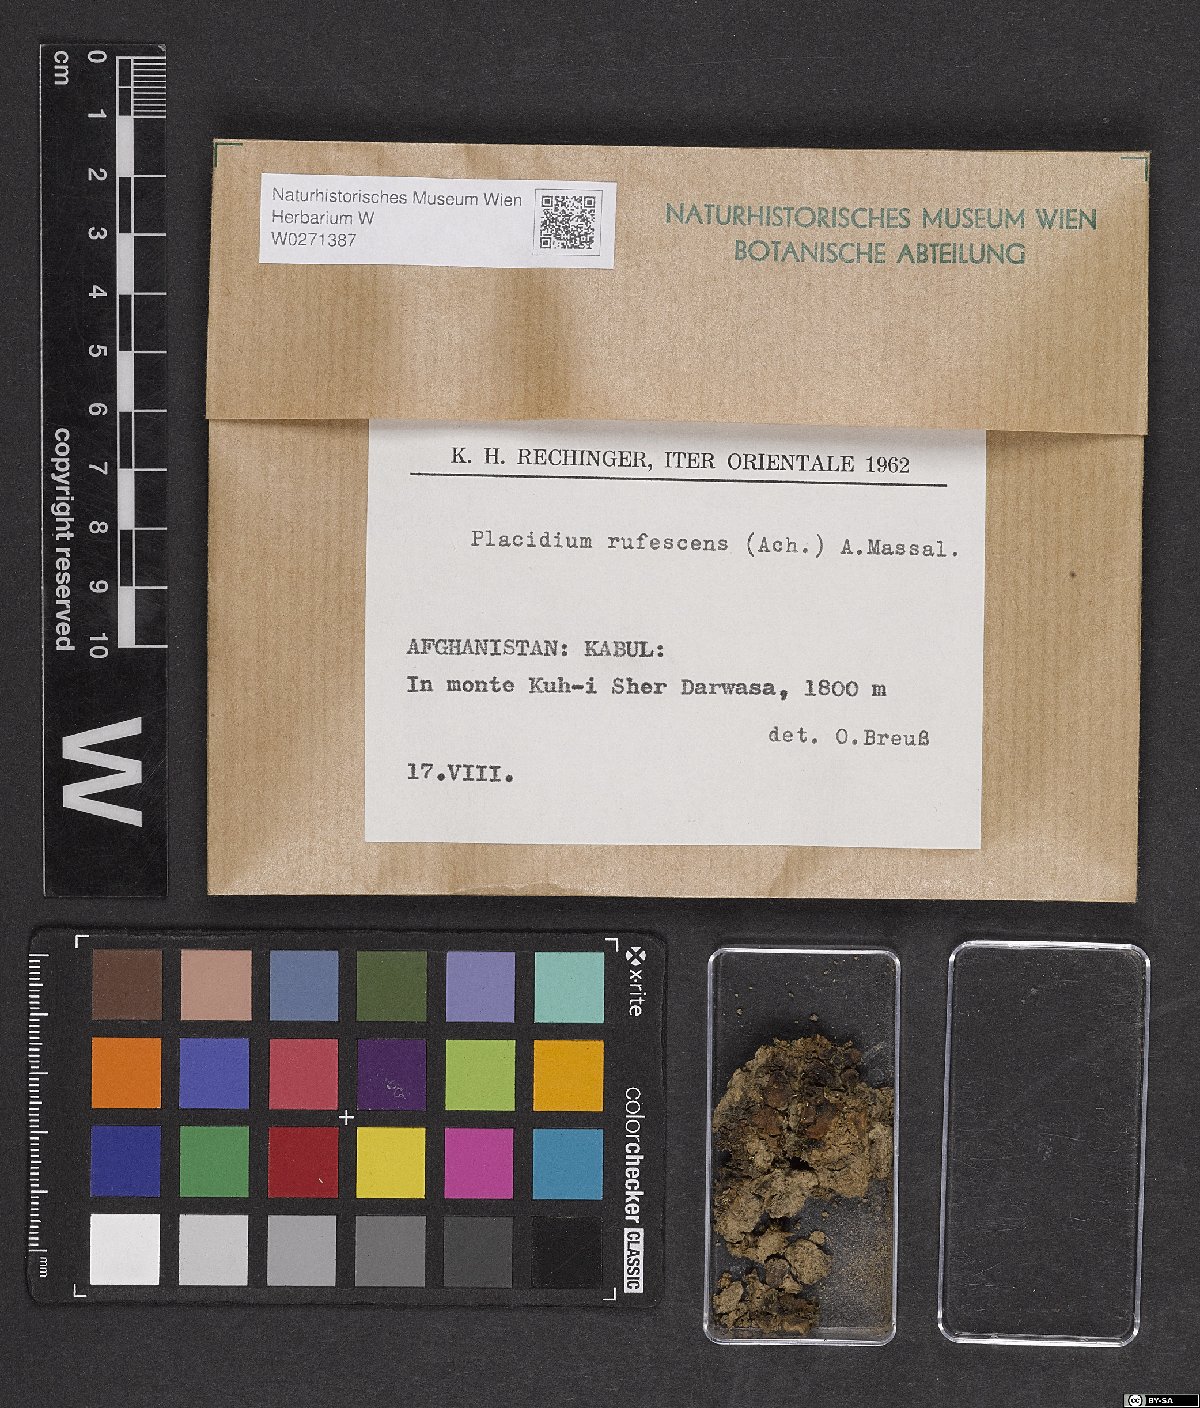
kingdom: Fungi
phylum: Ascomycota
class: Eurotiomycetes
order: Verrucariales
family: Verrucariaceae
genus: Catapyrenium
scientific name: Catapyrenium rufescens
